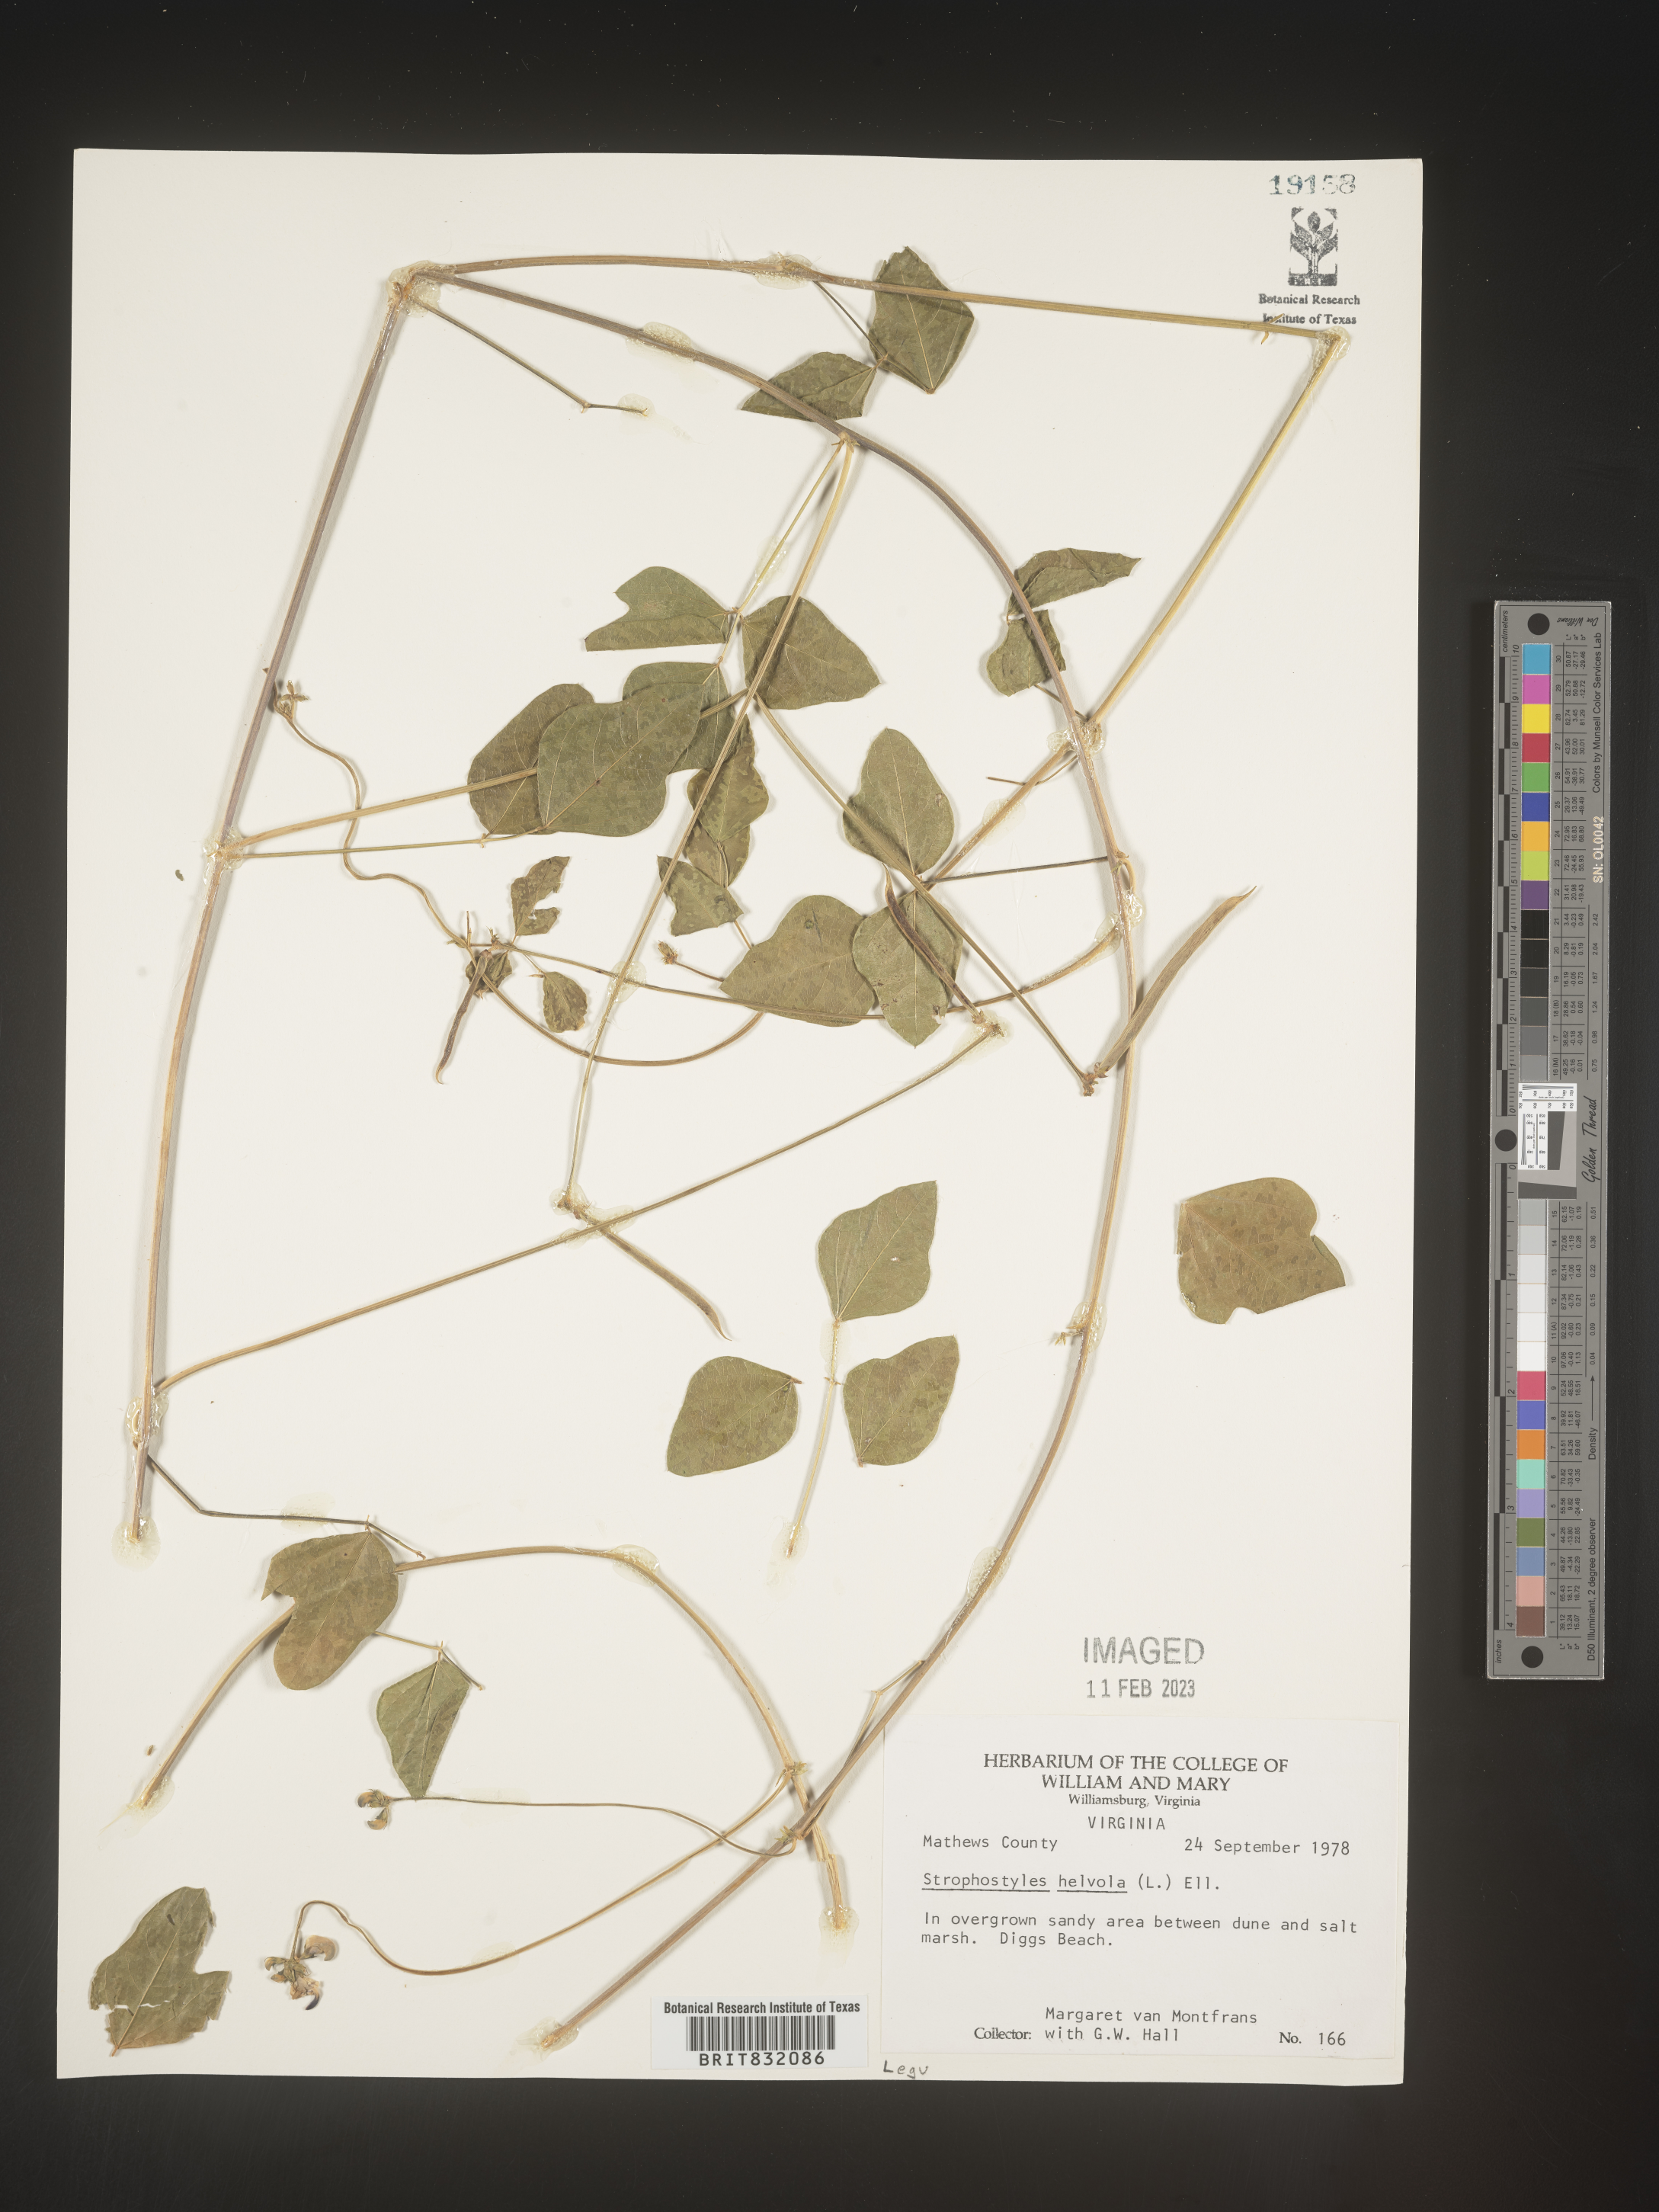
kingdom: Plantae
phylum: Tracheophyta
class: Magnoliopsida
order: Fabales
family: Fabaceae
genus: Strophostyles
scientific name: Strophostyles helvola
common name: Trailing wild bean
